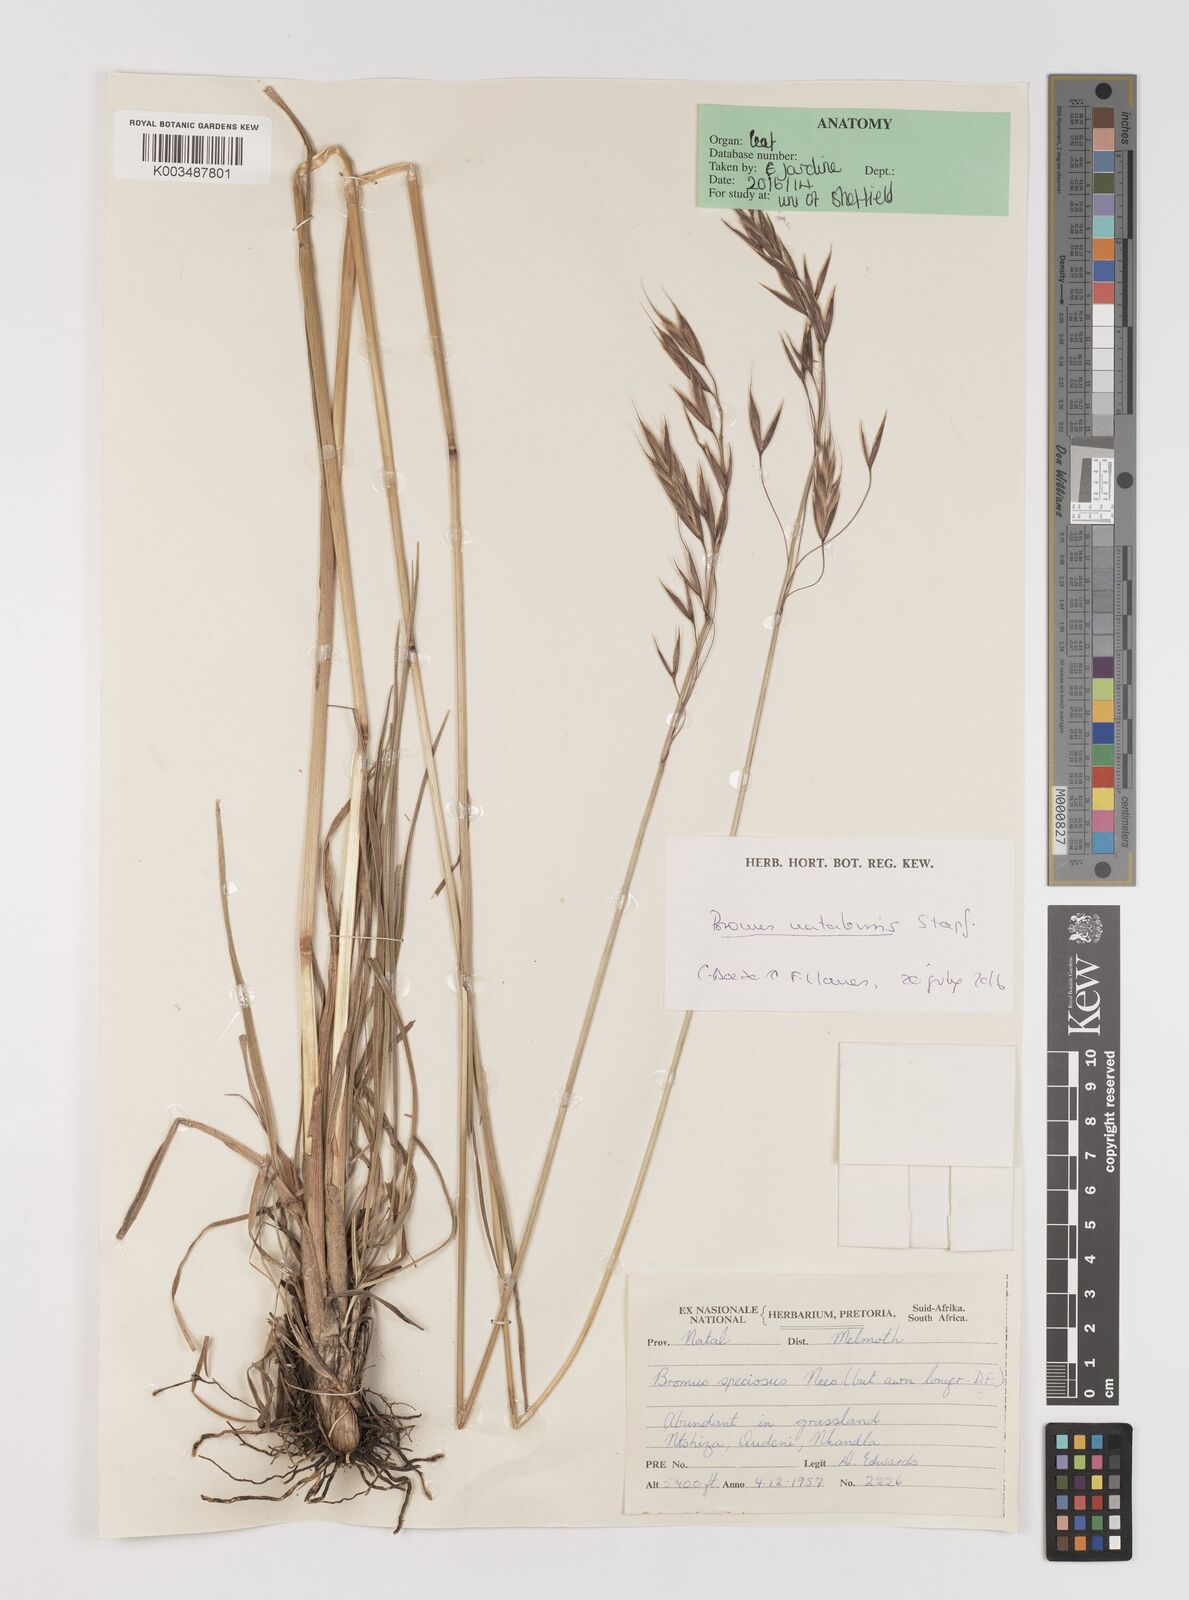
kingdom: Plantae
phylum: Tracheophyta
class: Liliopsida
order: Poales
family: Poaceae
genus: Bromus
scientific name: Bromus speciosus
